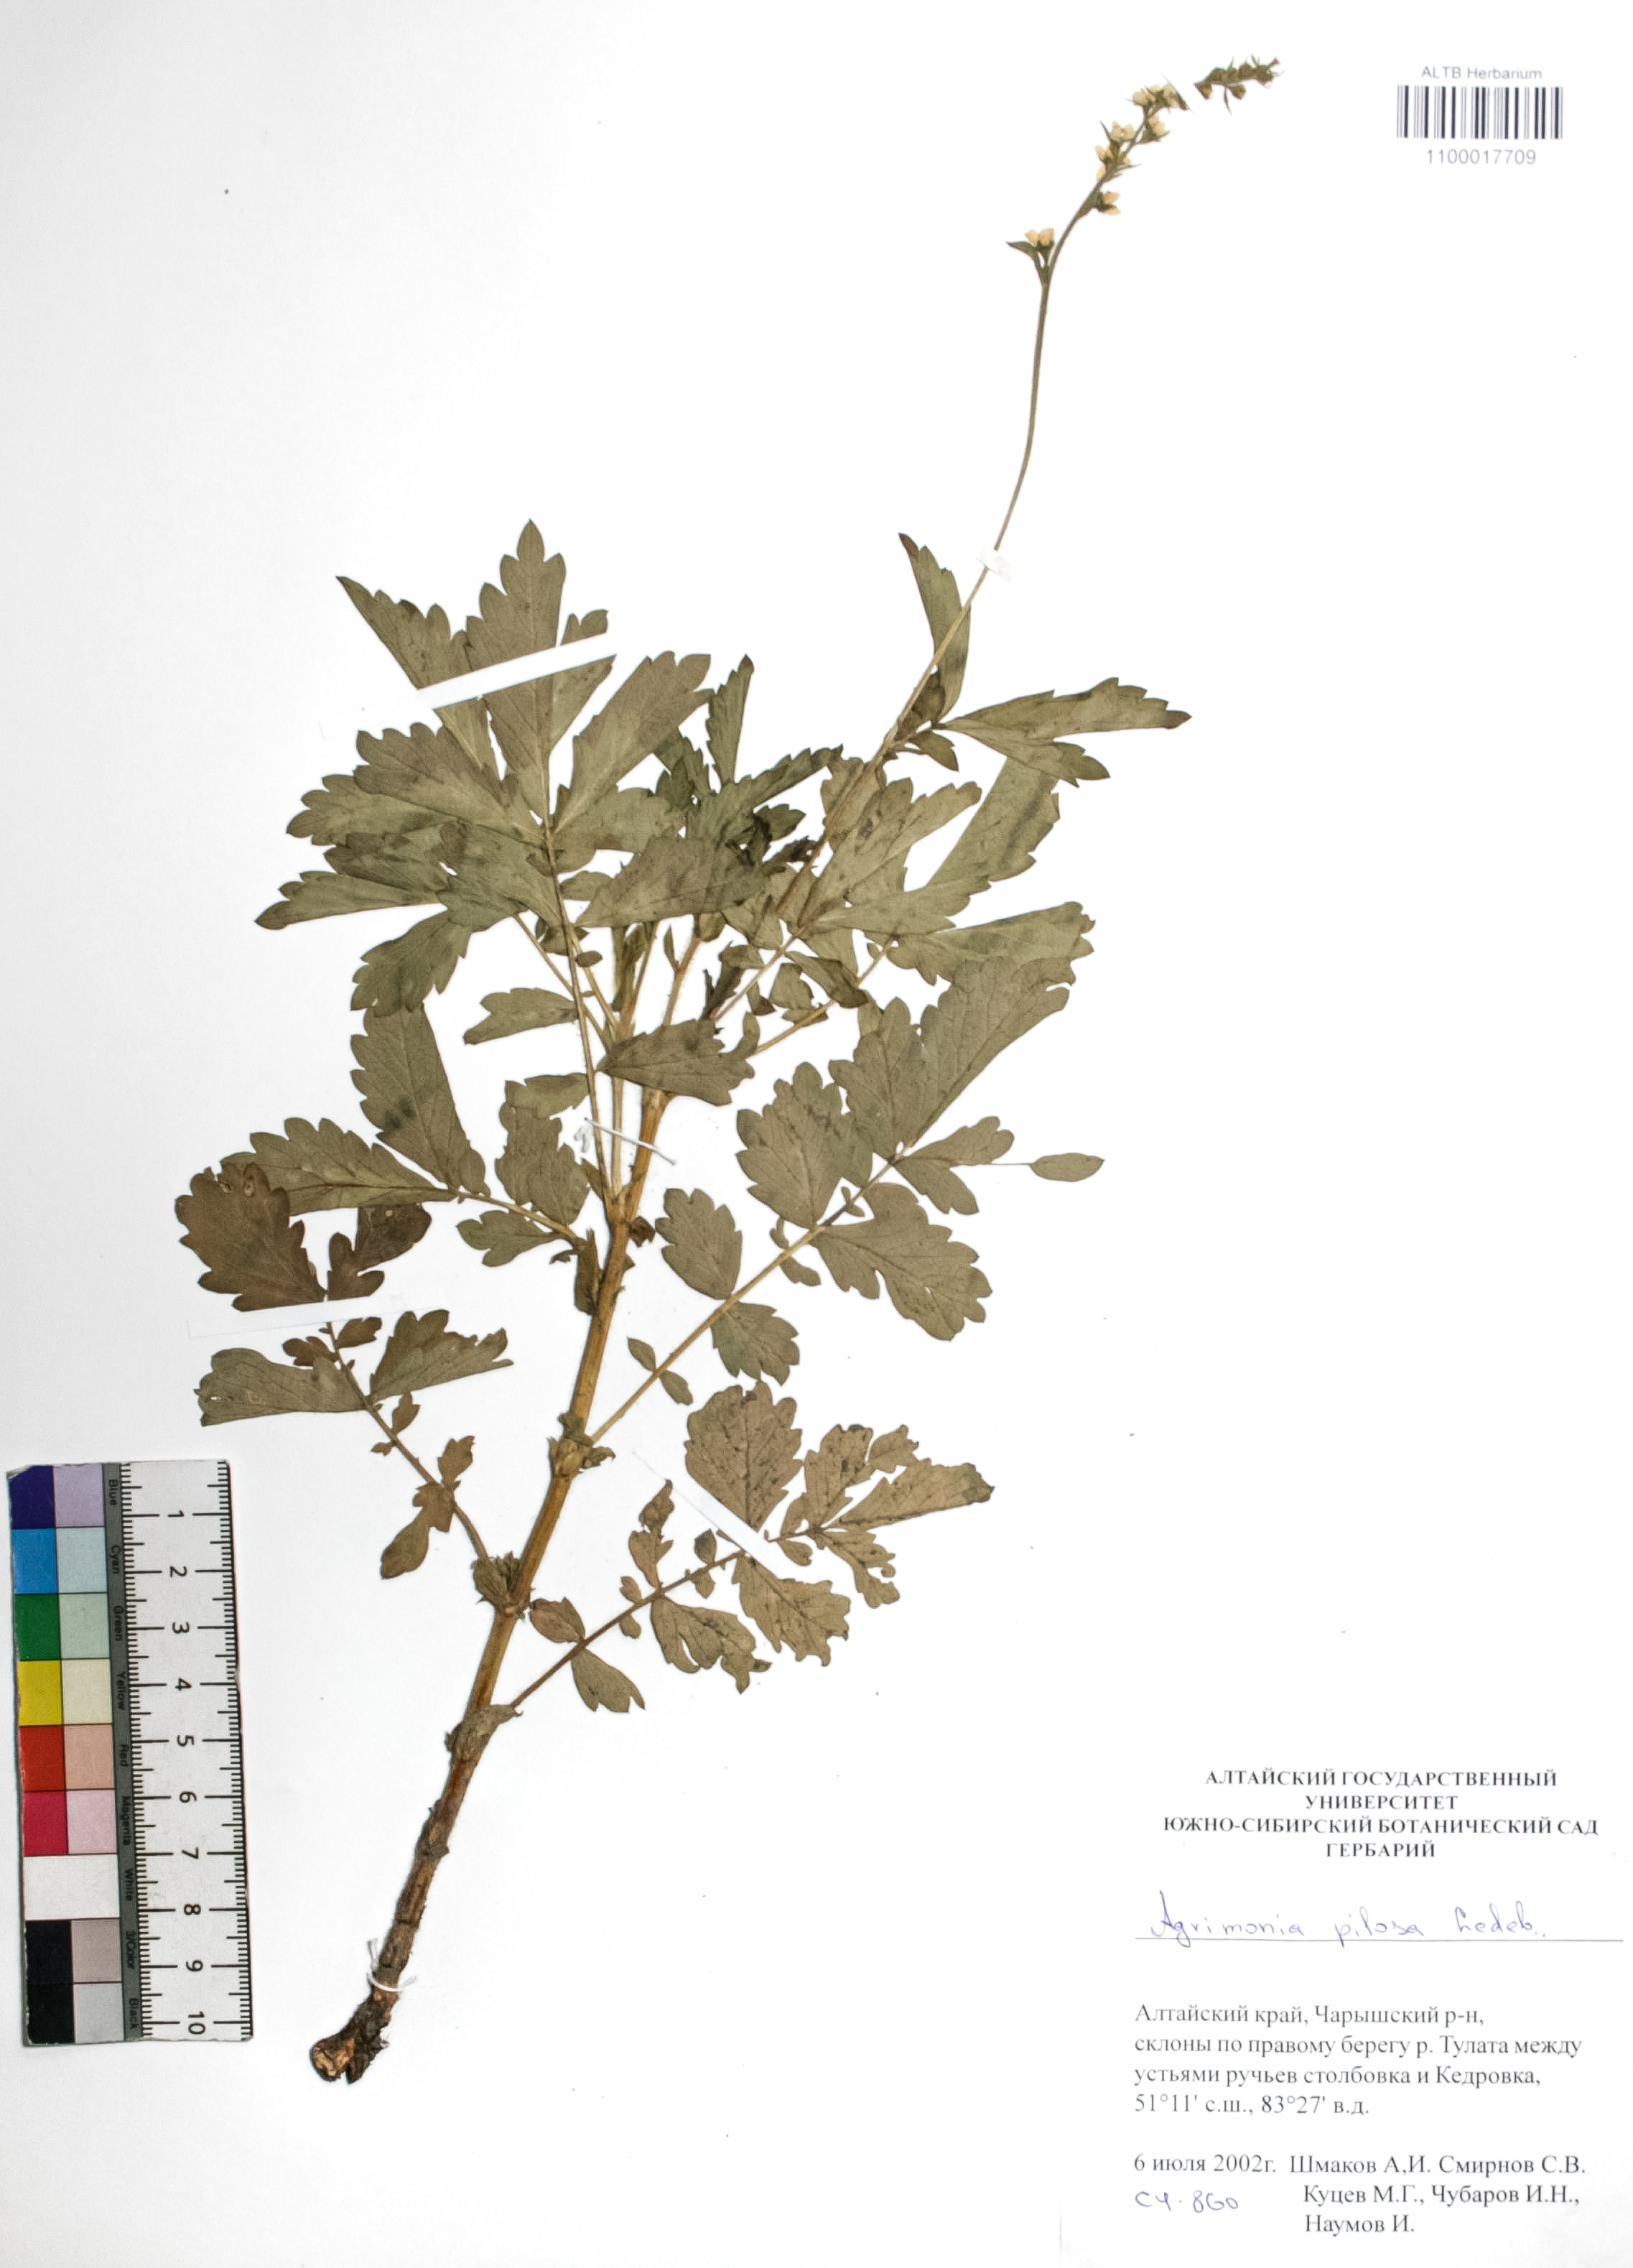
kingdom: Plantae
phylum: Tracheophyta
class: Magnoliopsida
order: Rosales
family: Rosaceae
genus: Agrimonia
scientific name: Agrimonia pilosa
